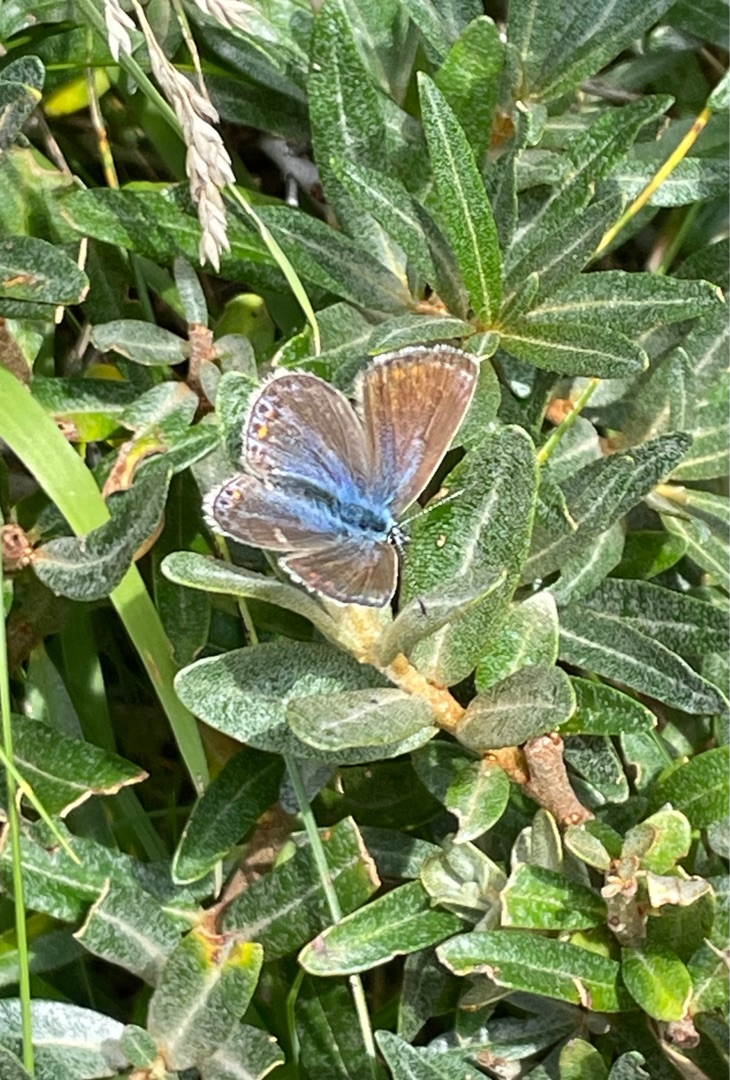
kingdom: Animalia
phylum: Arthropoda
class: Insecta
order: Lepidoptera
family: Lycaenidae
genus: Polyommatus
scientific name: Polyommatus icarus
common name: Almindelig blåfugl
